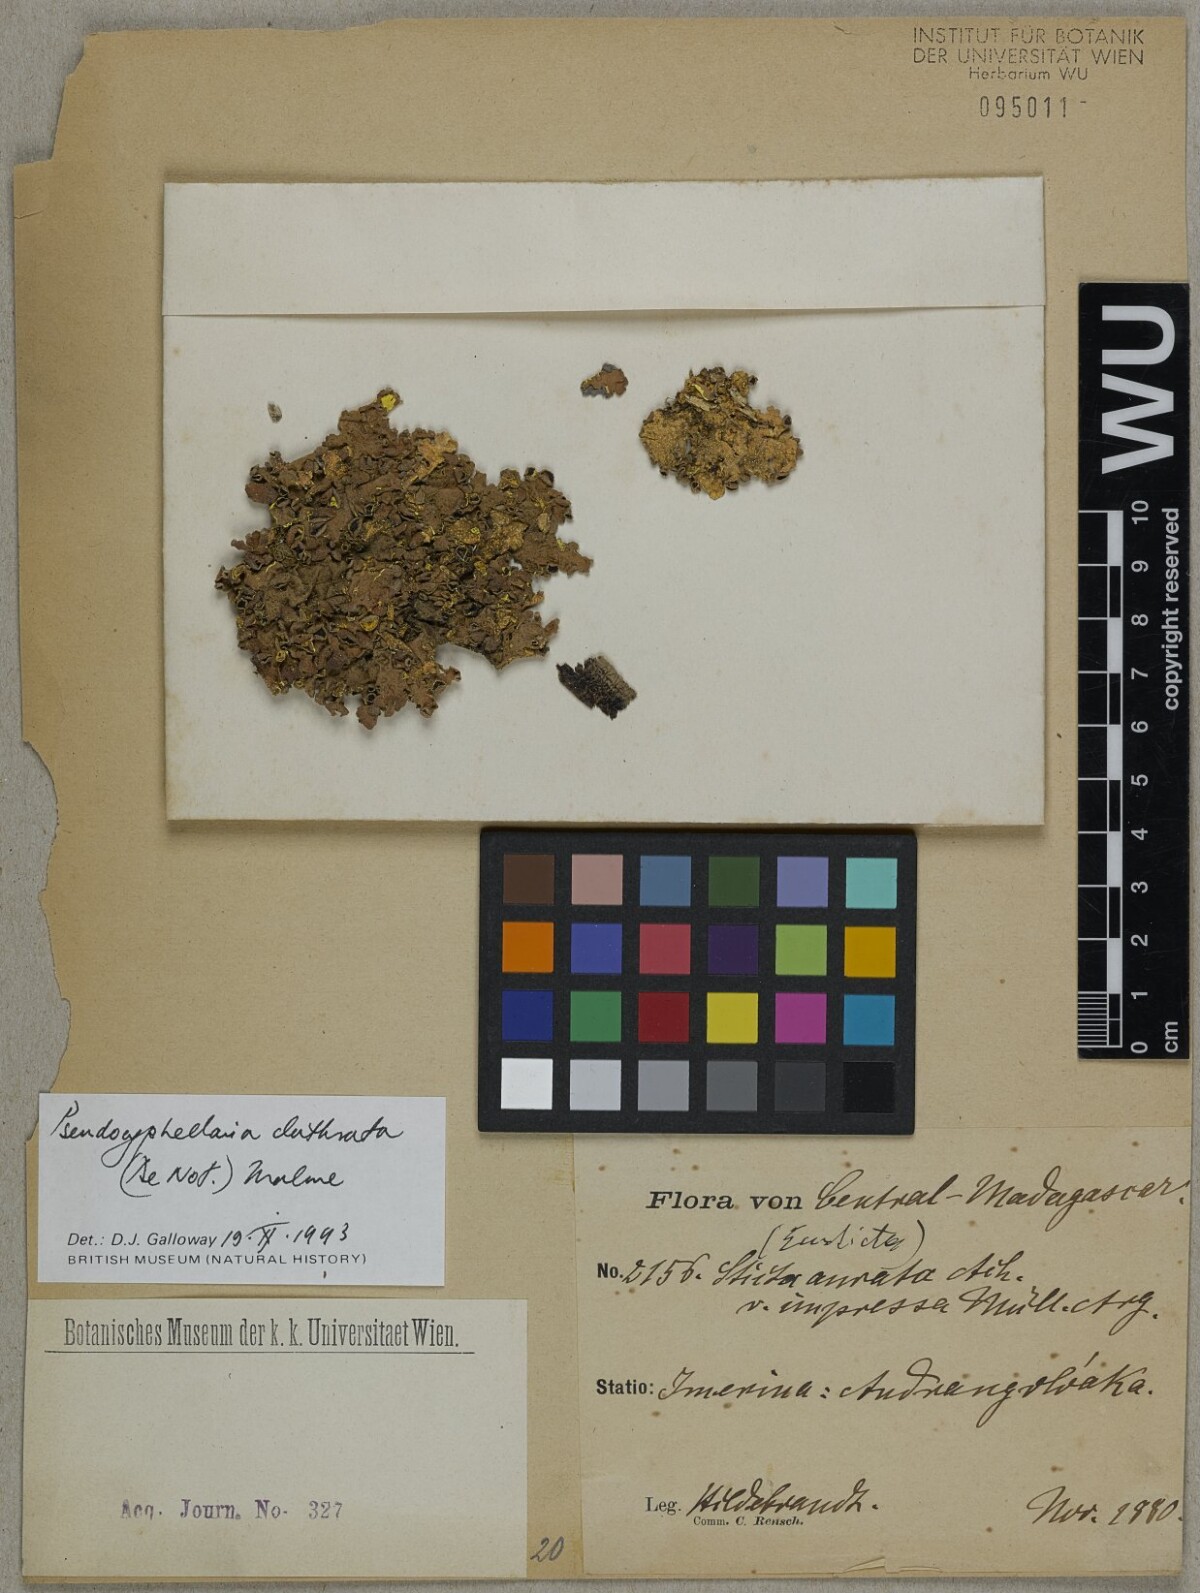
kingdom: Fungi
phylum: Ascomycota
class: Lecanoromycetes
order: Peltigerales
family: Lobariaceae
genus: Pseudocyphellaria
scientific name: Pseudocyphellaria clathrata
